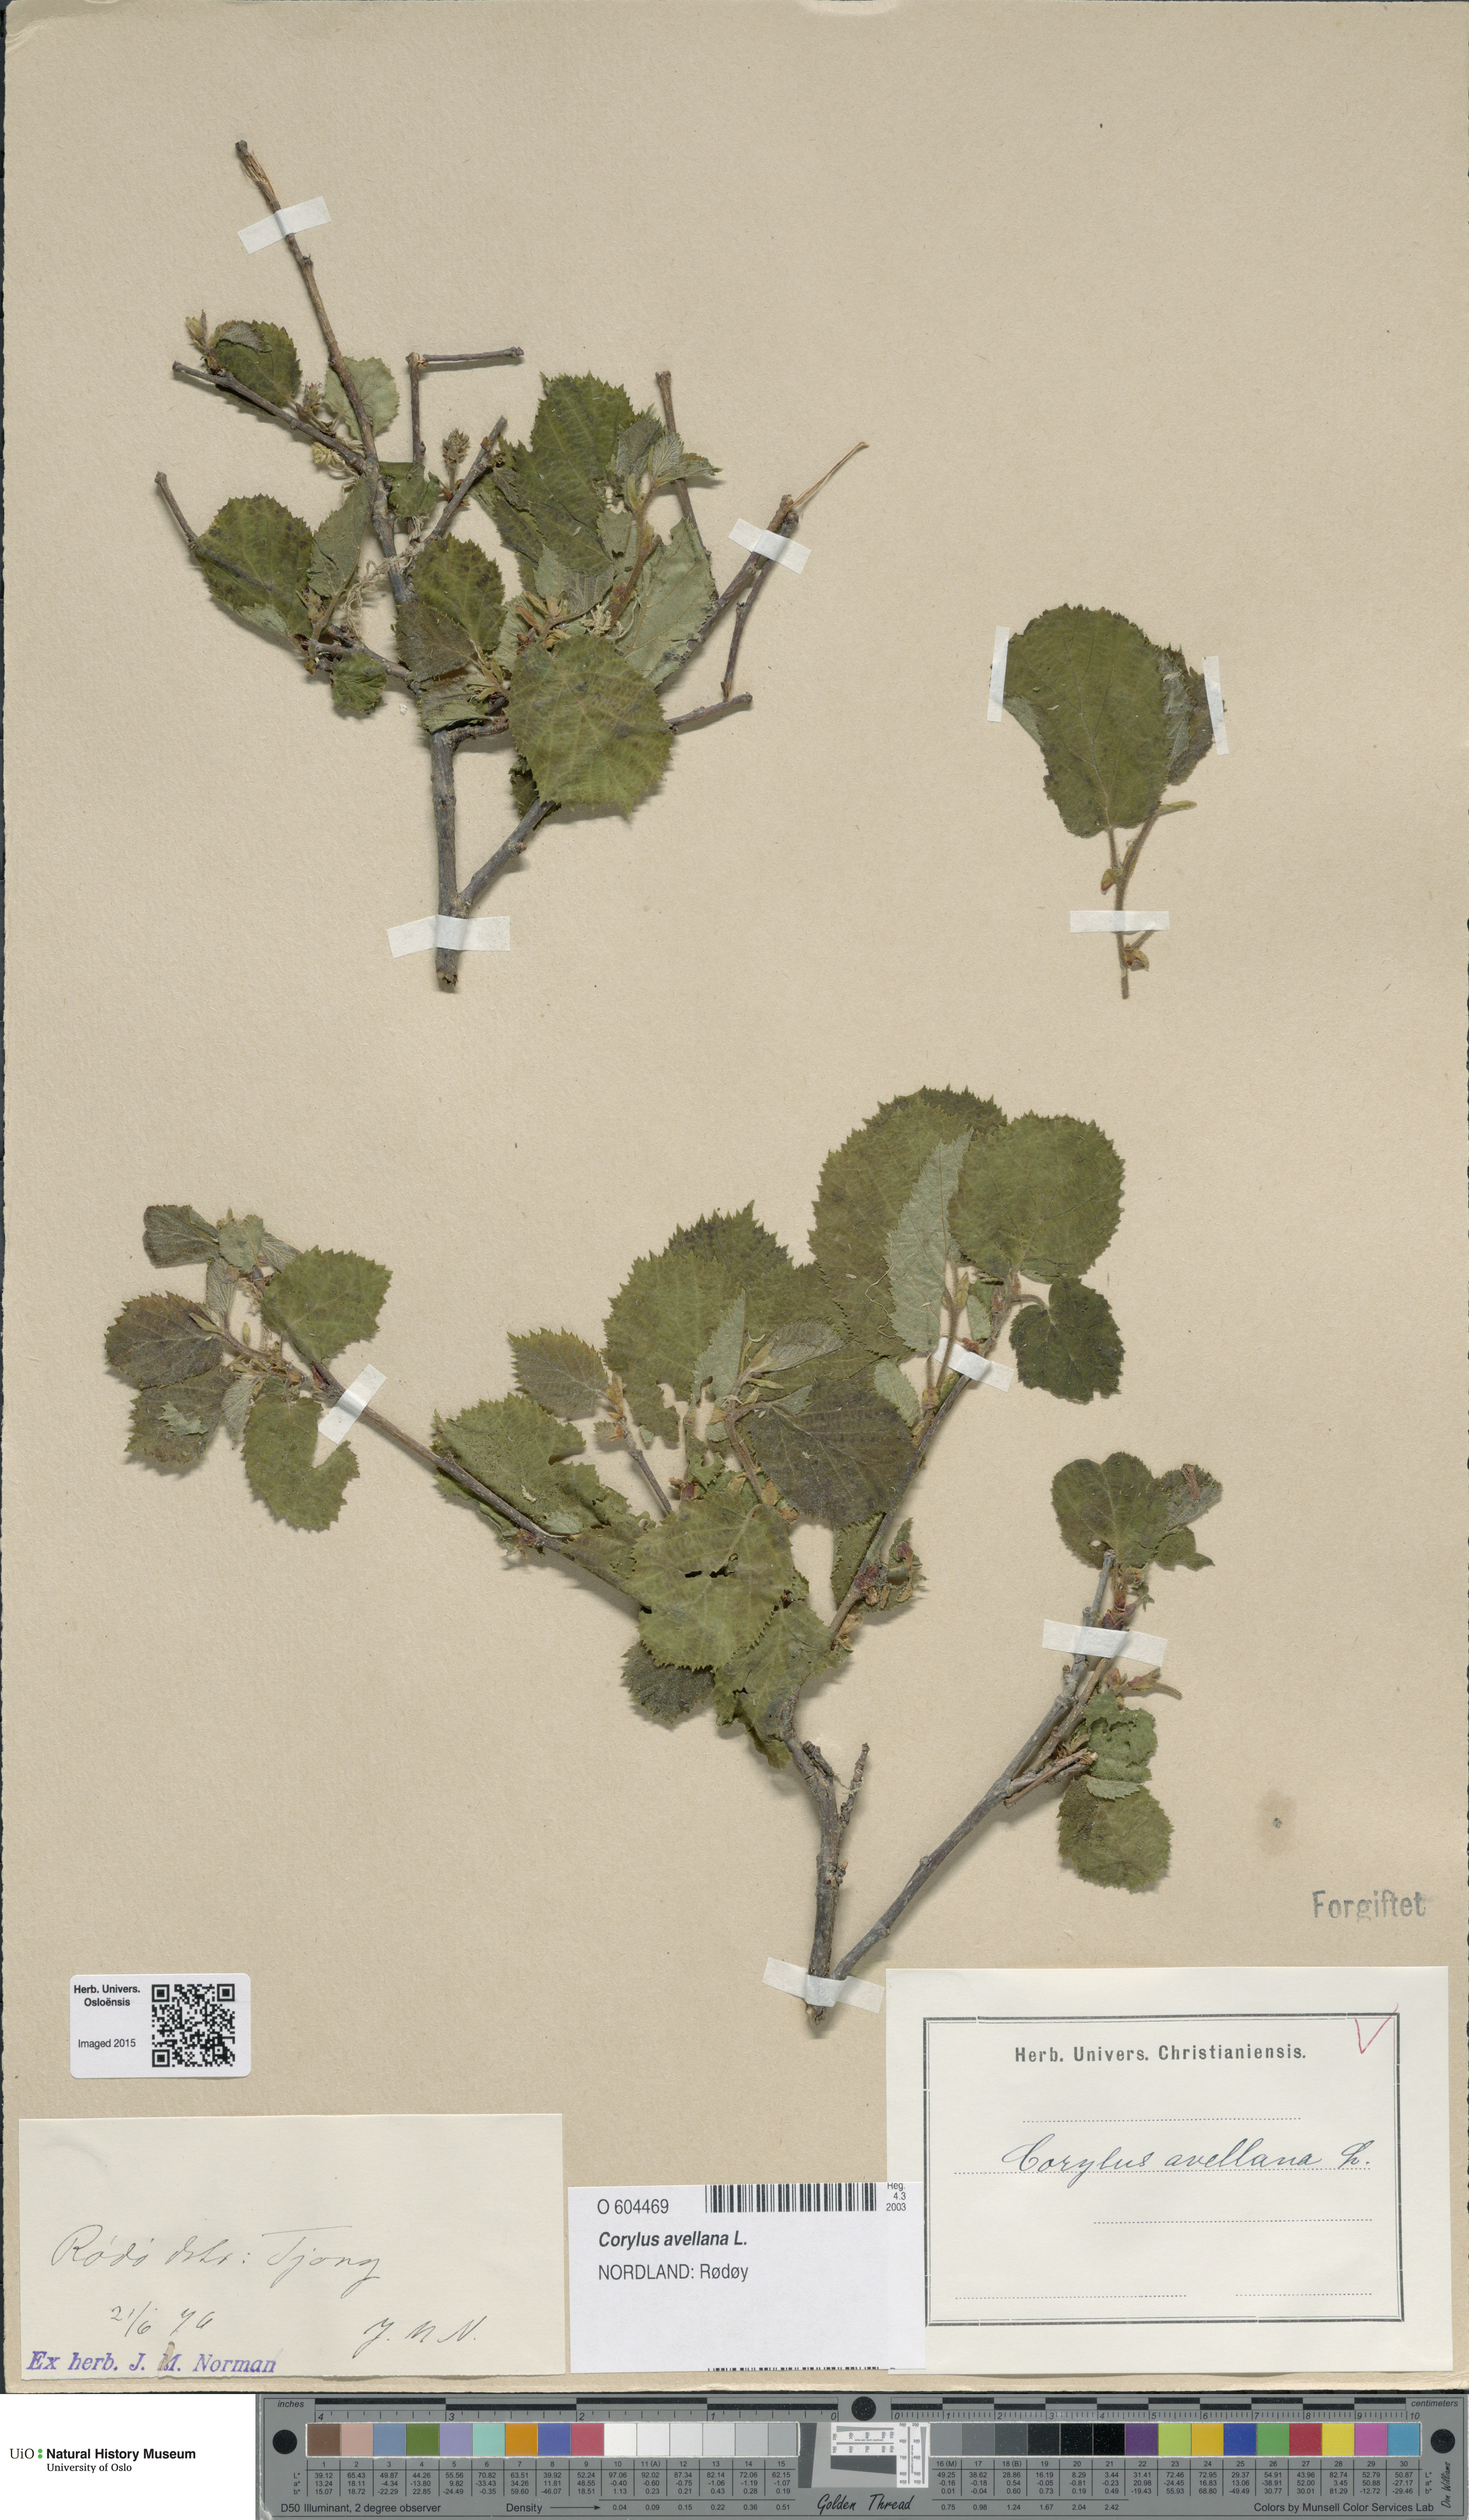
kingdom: Plantae
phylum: Tracheophyta
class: Magnoliopsida
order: Fagales
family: Betulaceae
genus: Corylus
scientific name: Corylus avellana
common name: European hazel
